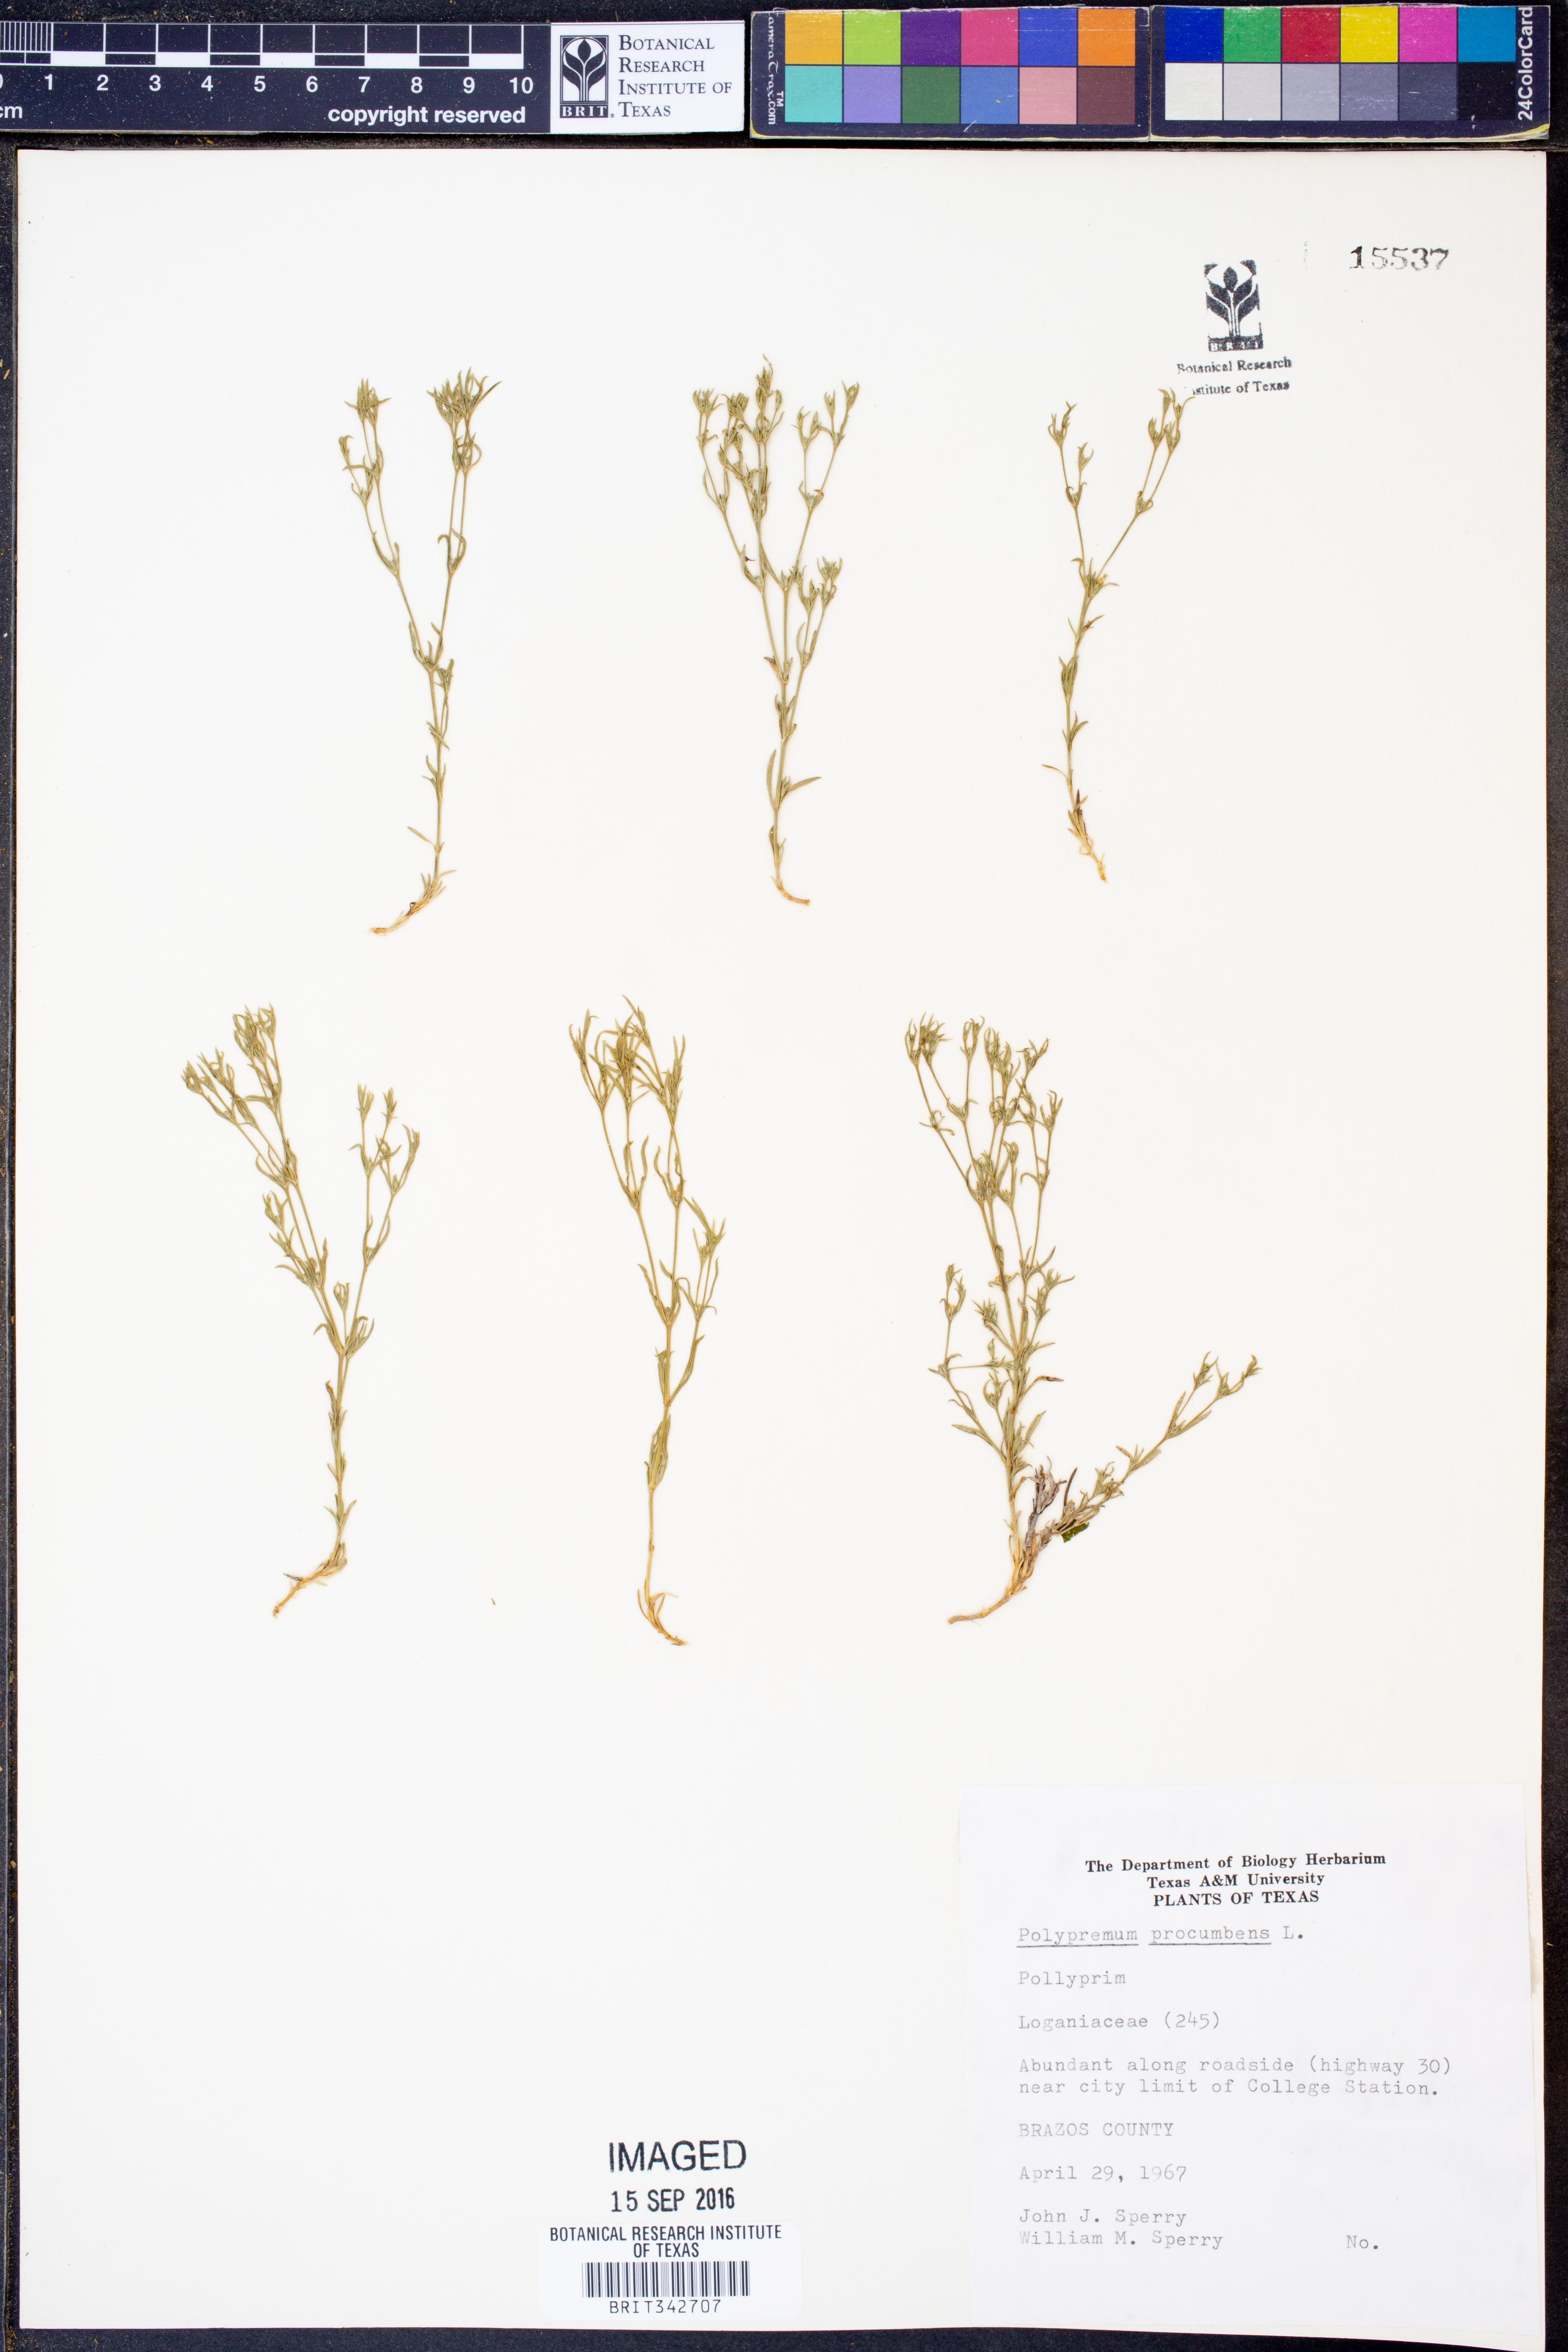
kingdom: Plantae
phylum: Tracheophyta
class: Magnoliopsida
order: Lamiales
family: Tetrachondraceae
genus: Polypremum
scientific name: Polypremum procumbens
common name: Juniper-leaf
